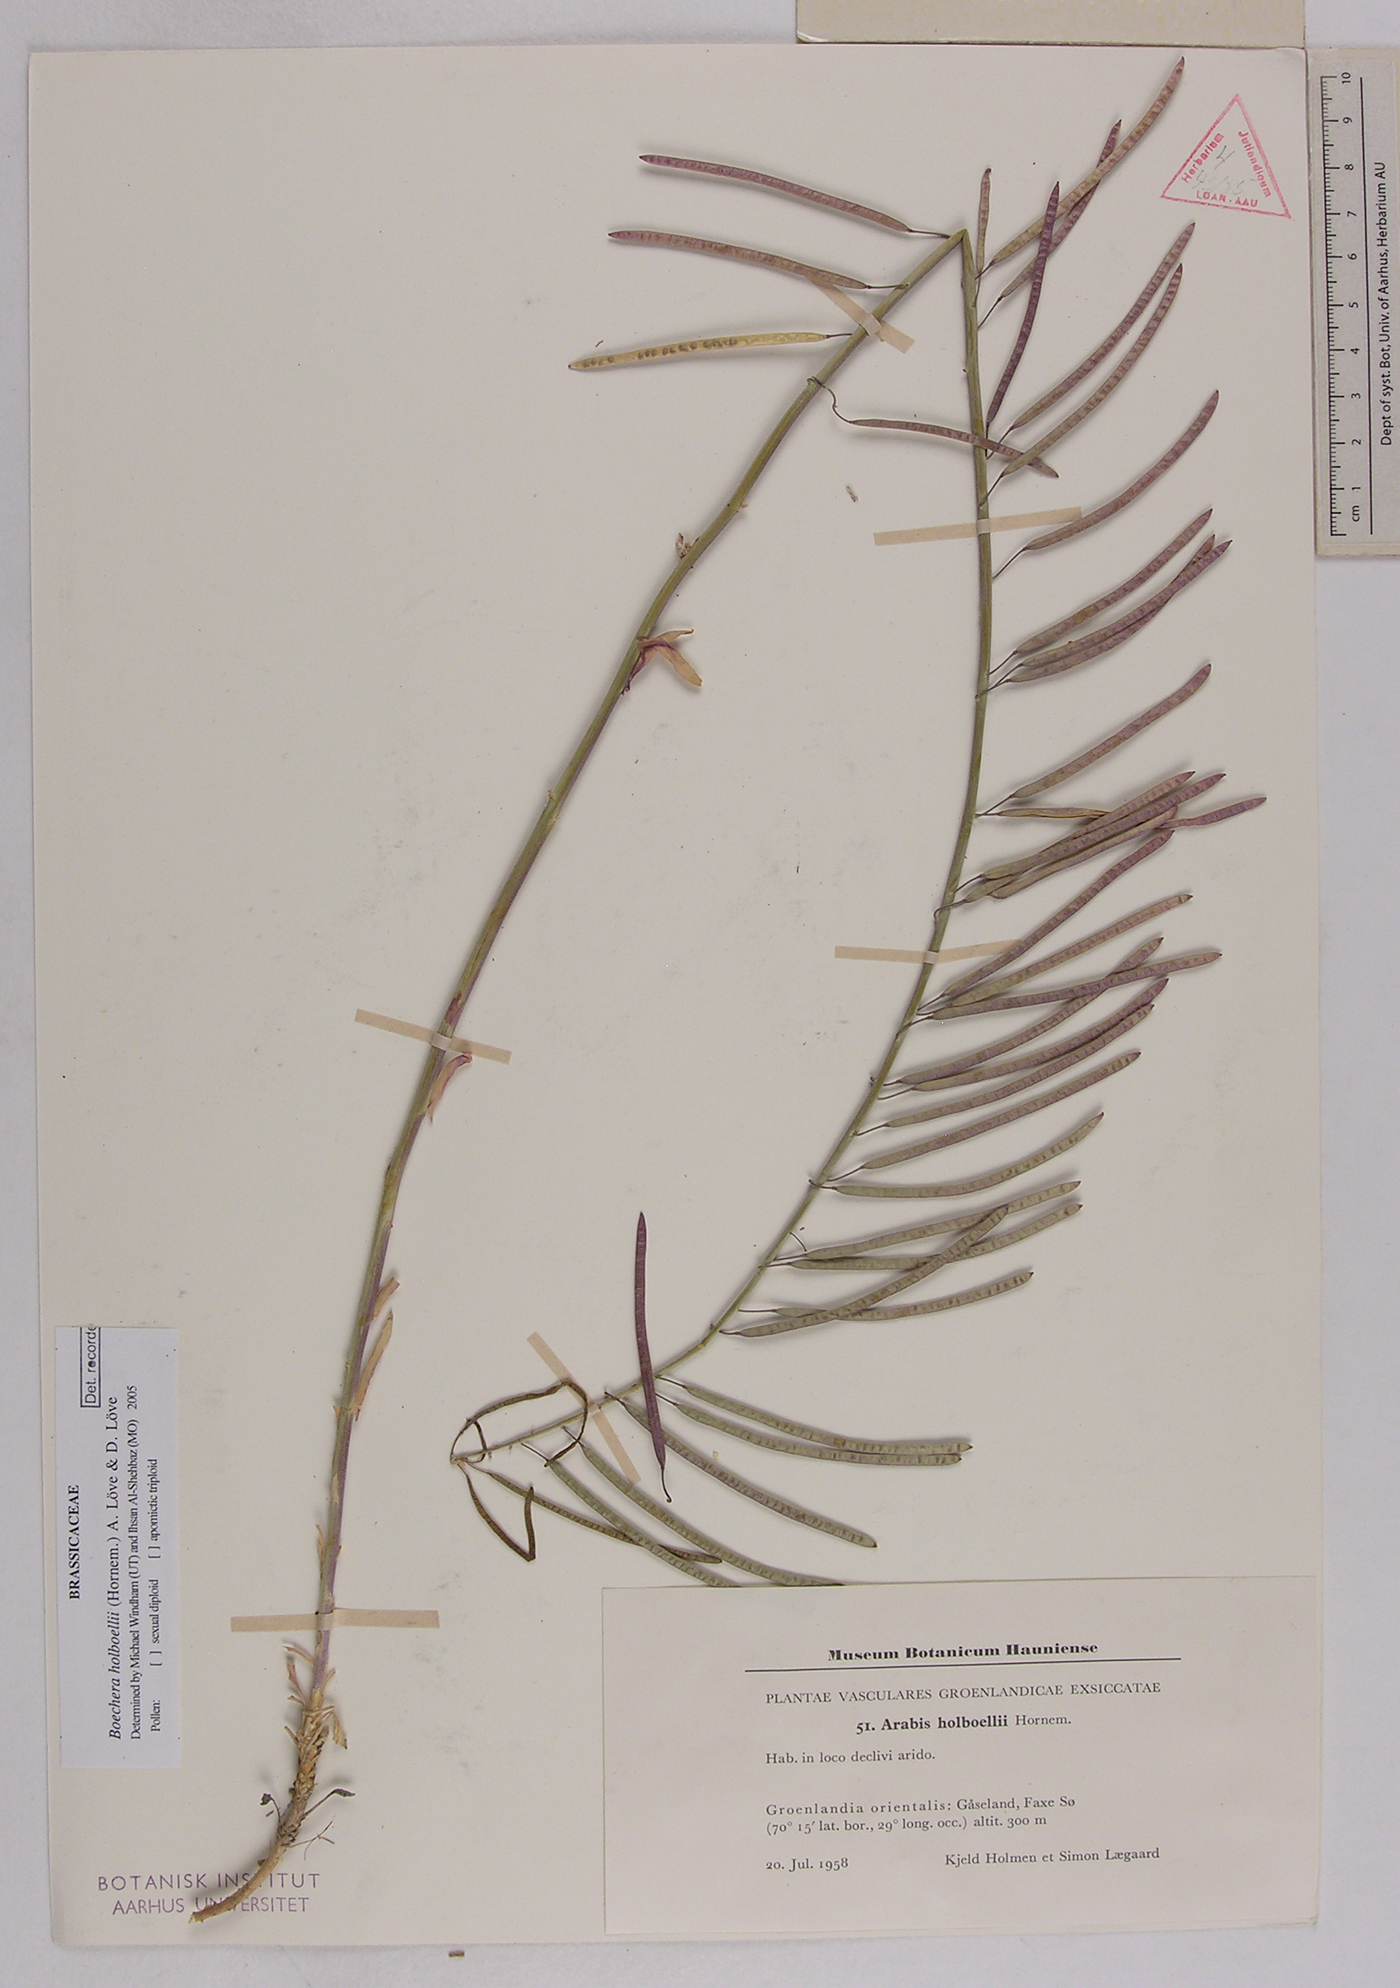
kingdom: Plantae
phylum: Tracheophyta
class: Magnoliopsida
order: Brassicales
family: Brassicaceae
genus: Boechera
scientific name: Boechera holboellii
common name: Holboell's rockcress
